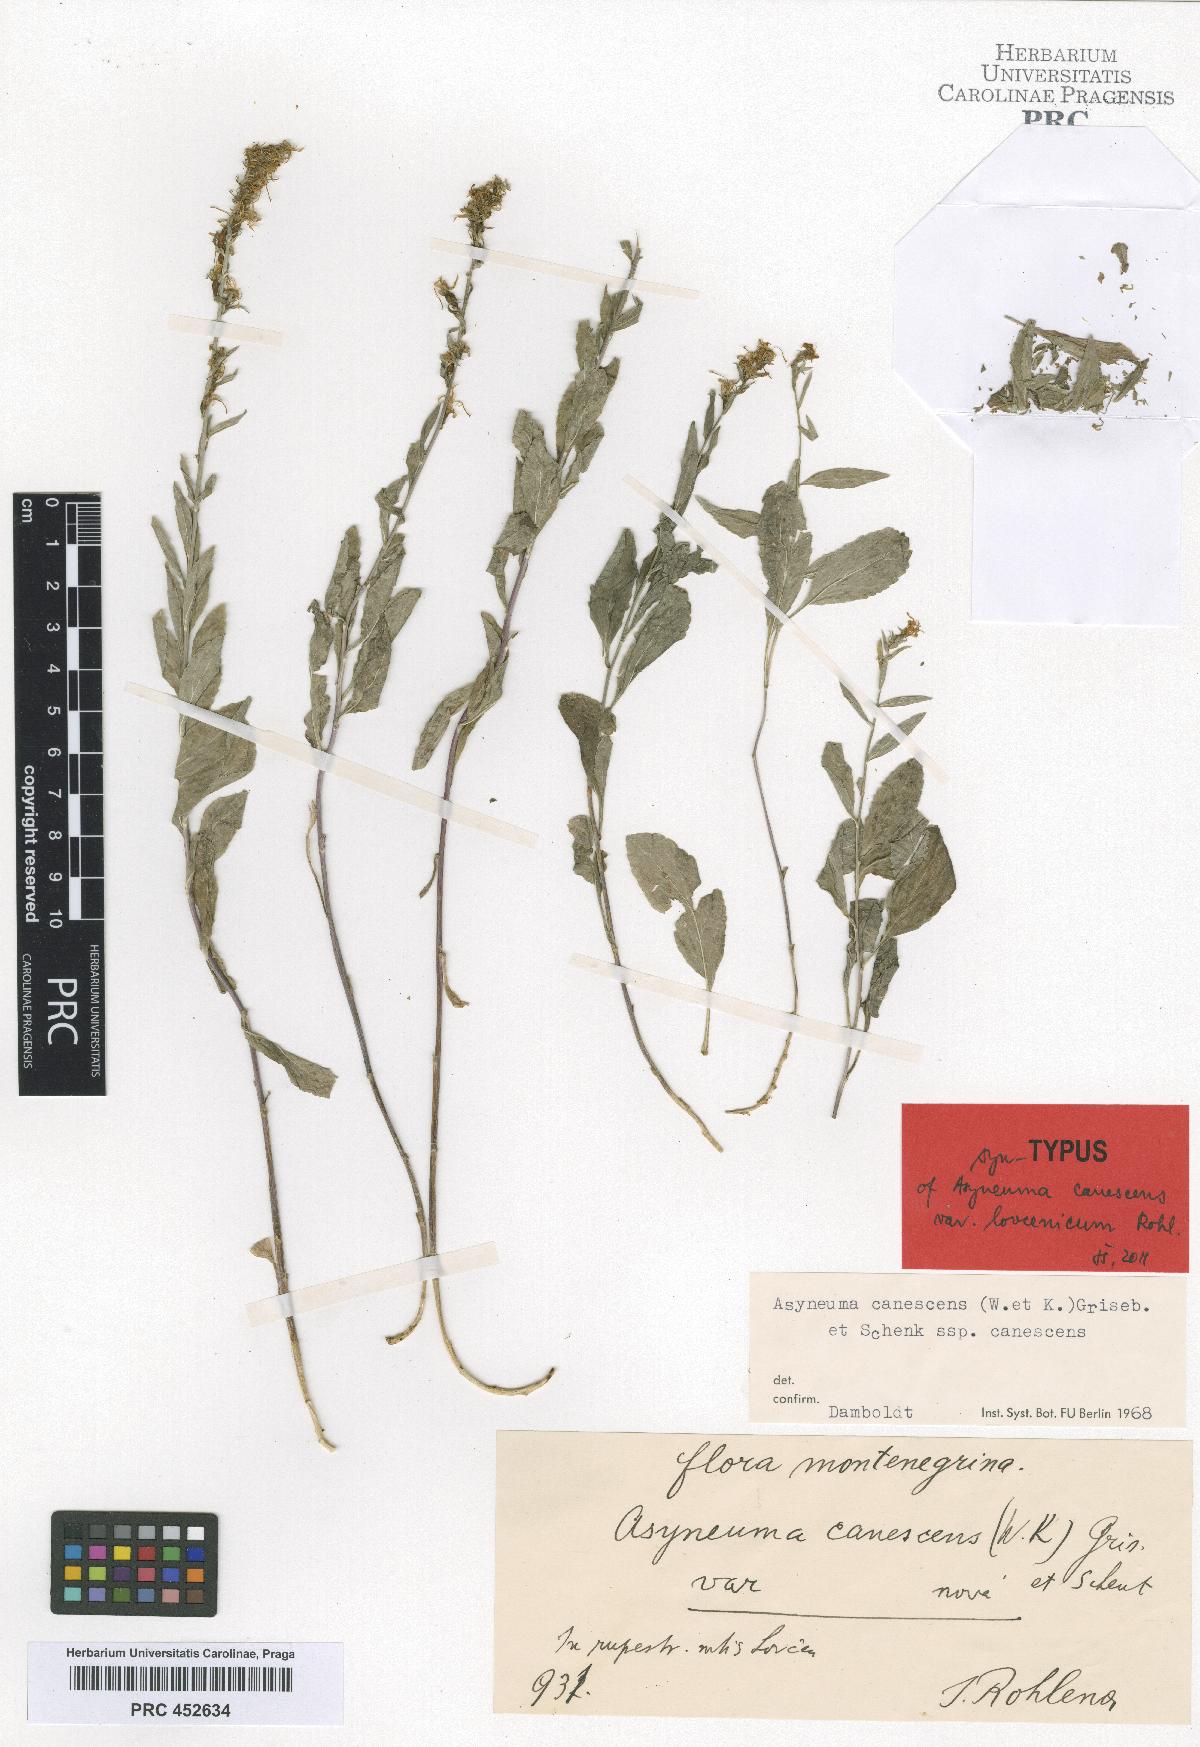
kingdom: Plantae
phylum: Tracheophyta
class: Magnoliopsida
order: Asterales
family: Campanulaceae
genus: Asyneuma
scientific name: Asyneuma canescens
